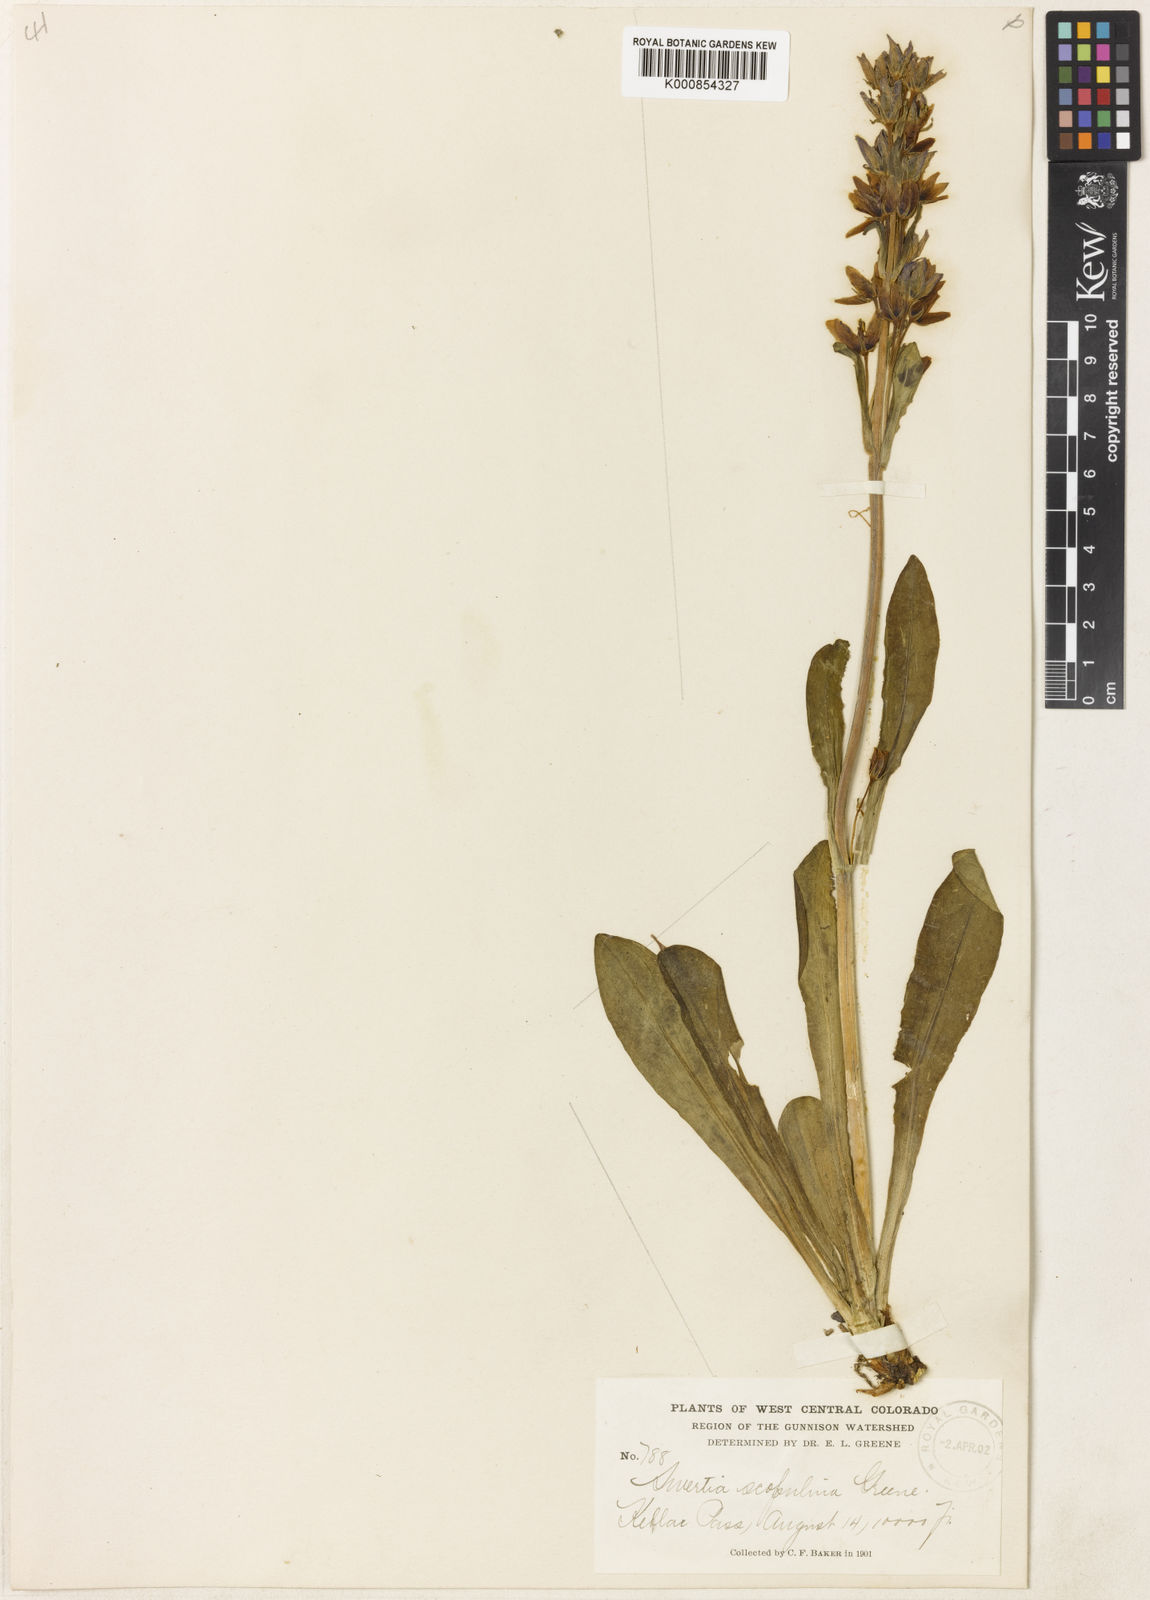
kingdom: Plantae
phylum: Tracheophyta
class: Magnoliopsida
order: Gentianales
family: Gentianaceae
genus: Swertia
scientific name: Swertia perennis
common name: Alpine bog swertia
